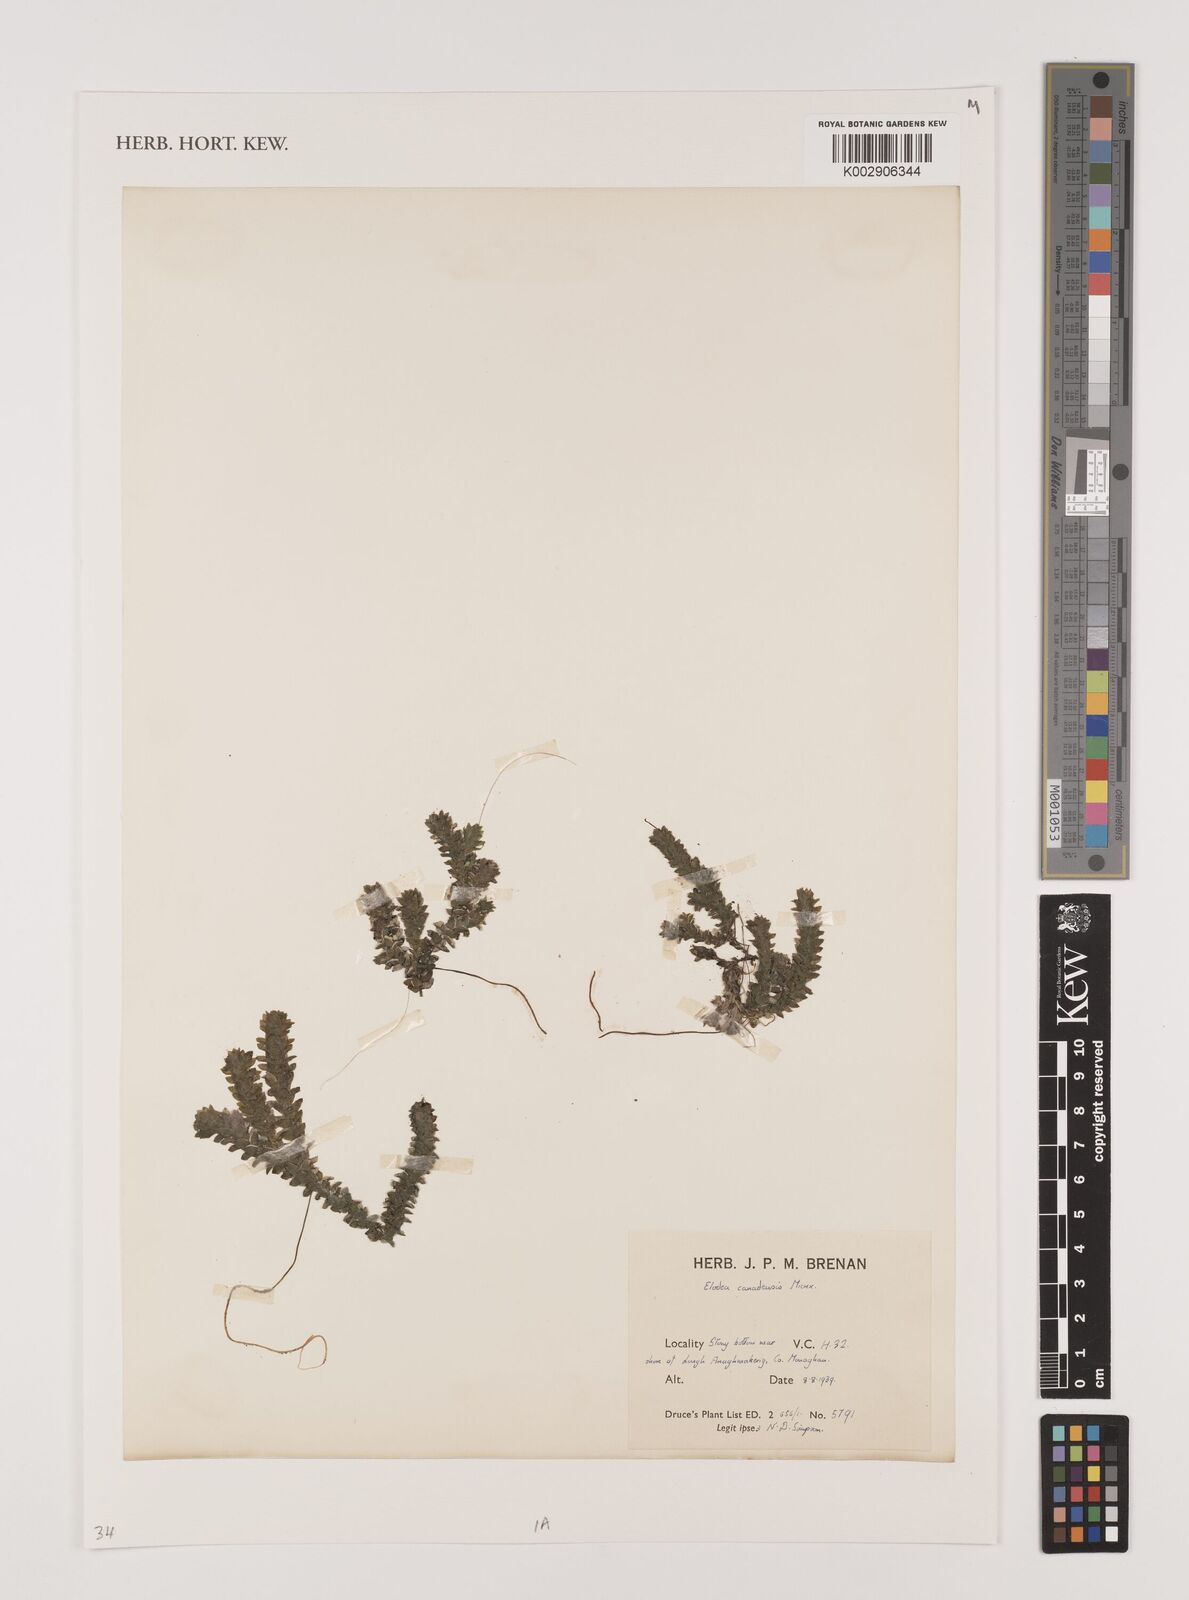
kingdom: Plantae
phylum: Tracheophyta
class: Liliopsida
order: Alismatales
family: Hydrocharitaceae
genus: Elodea
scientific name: Elodea canadensis
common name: Canadian waterweed
